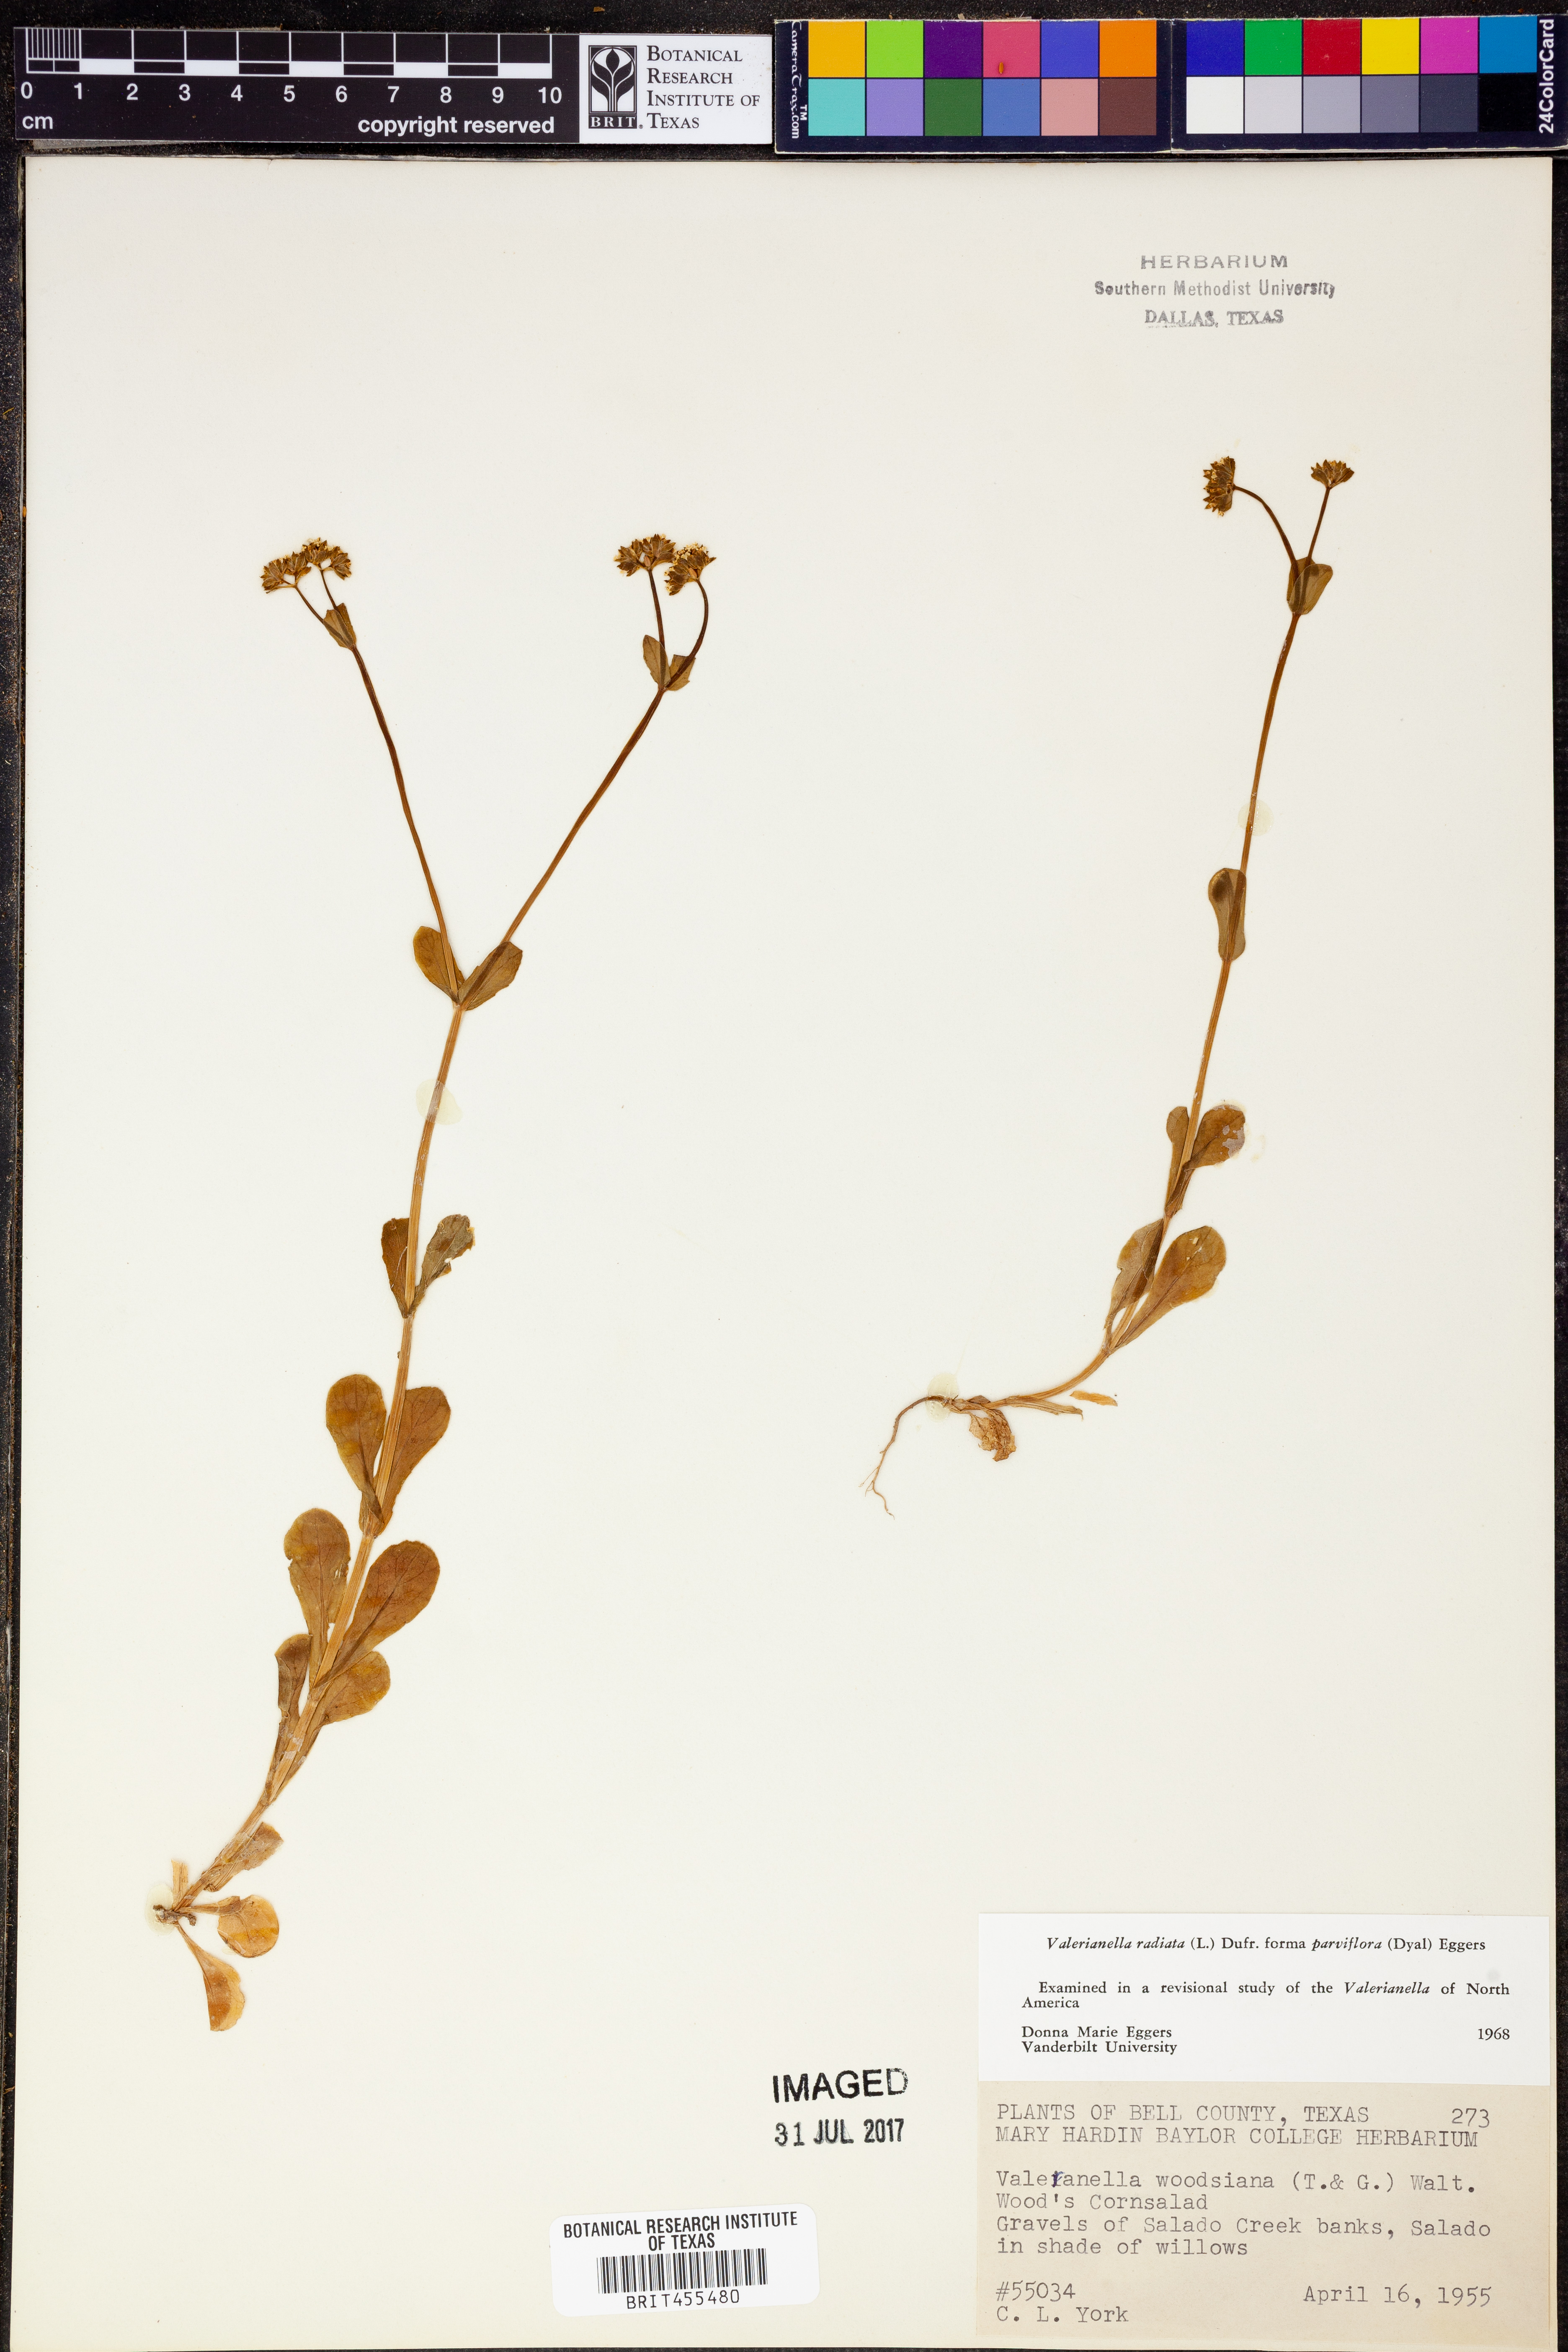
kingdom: Plantae
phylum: Tracheophyta
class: Magnoliopsida
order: Dipsacales
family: Caprifoliaceae
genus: Valerianella
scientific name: Valerianella radiata
